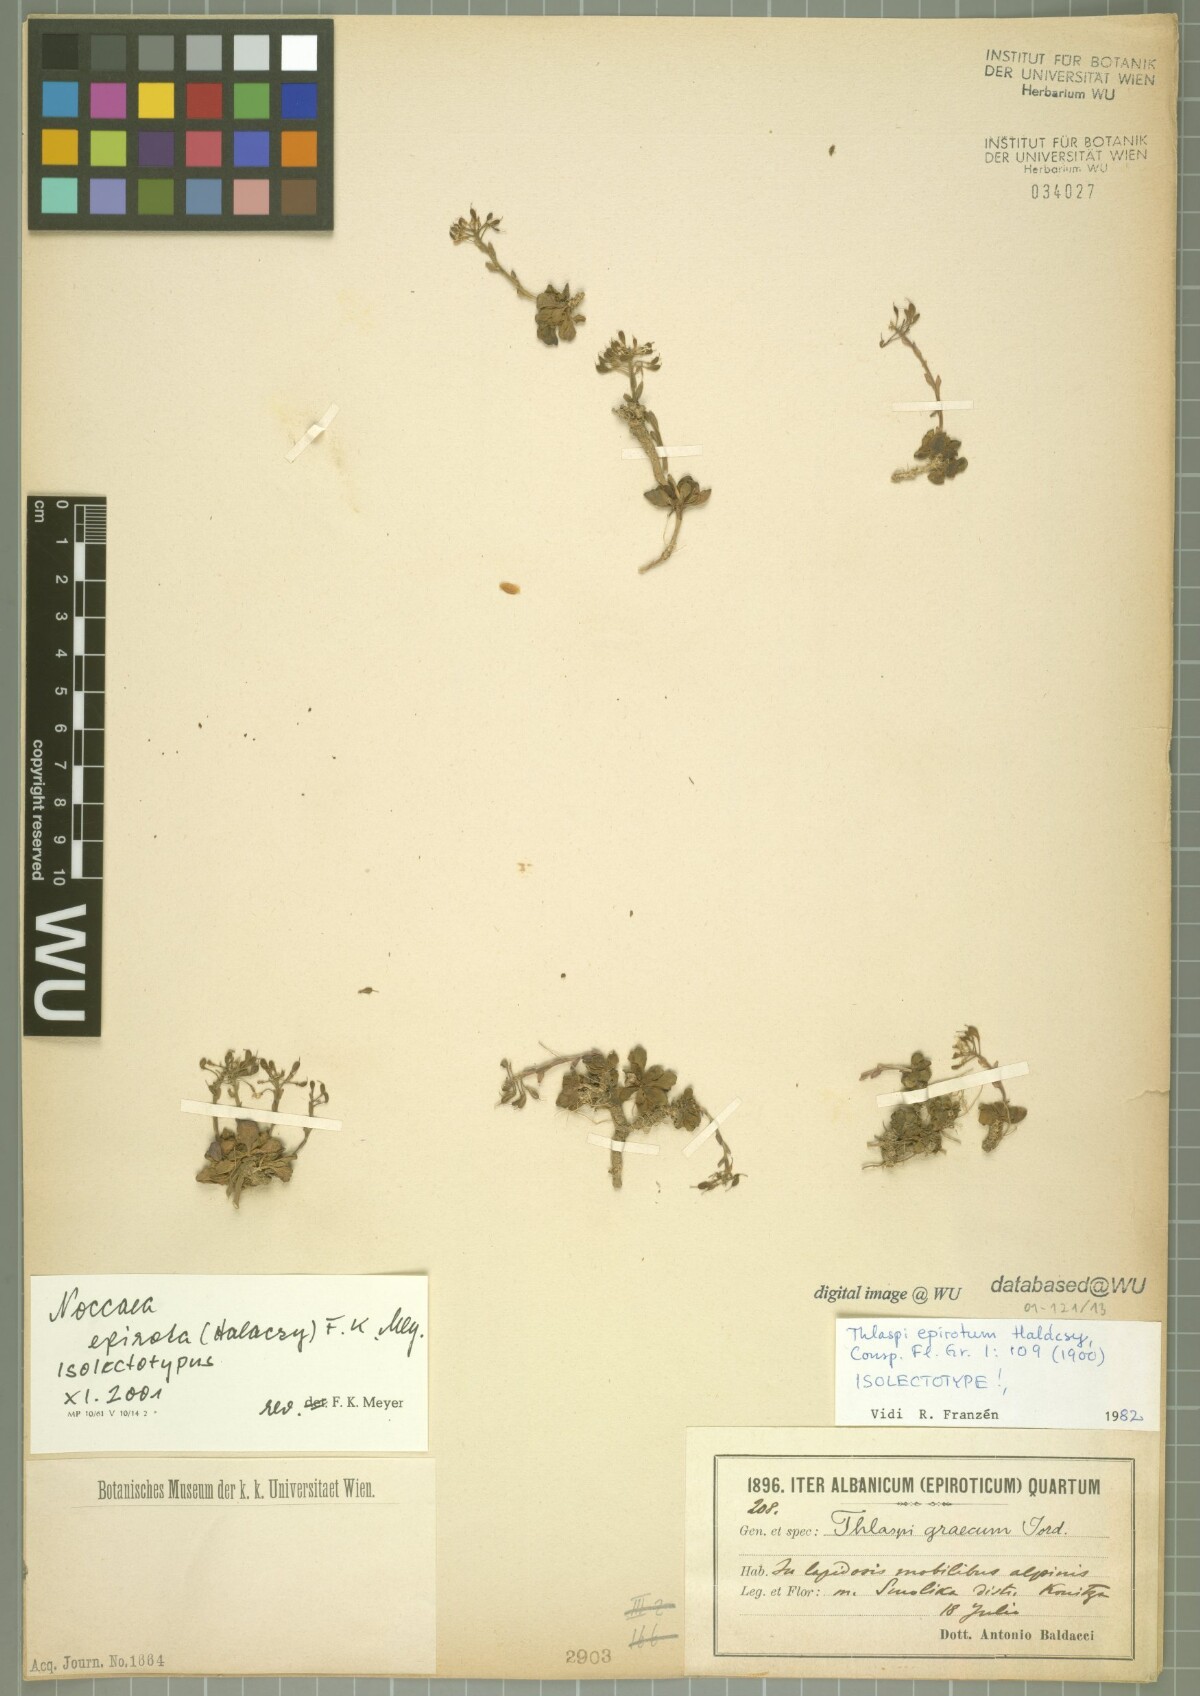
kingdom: Plantae
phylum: Tracheophyta
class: Magnoliopsida
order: Brassicales
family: Brassicaceae
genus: Noccaea
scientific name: Noccaea epirota
